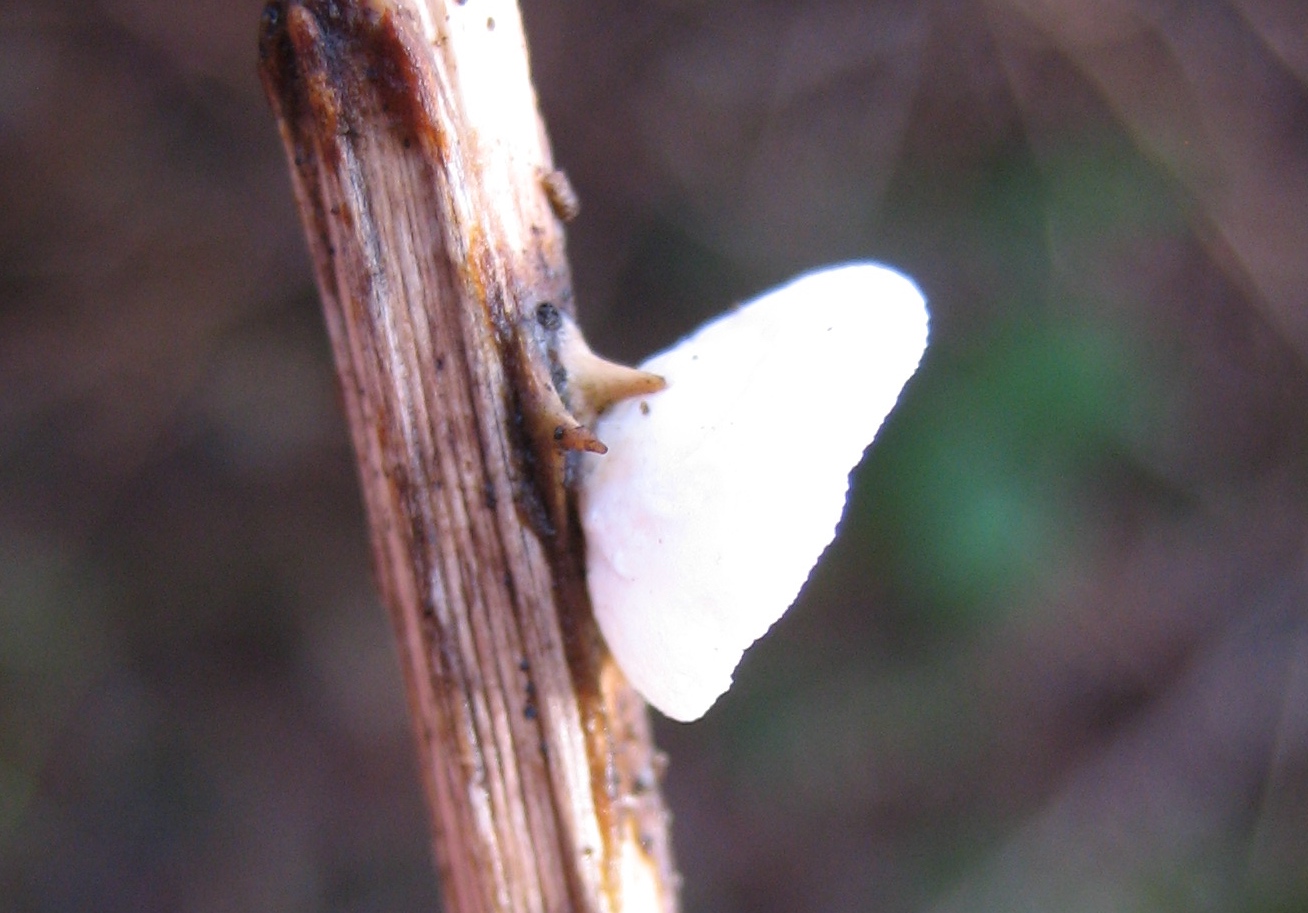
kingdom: Fungi
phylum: Basidiomycota
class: Agaricomycetes
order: Agaricales
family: Crepidotaceae
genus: Crepidotus
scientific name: Crepidotus
